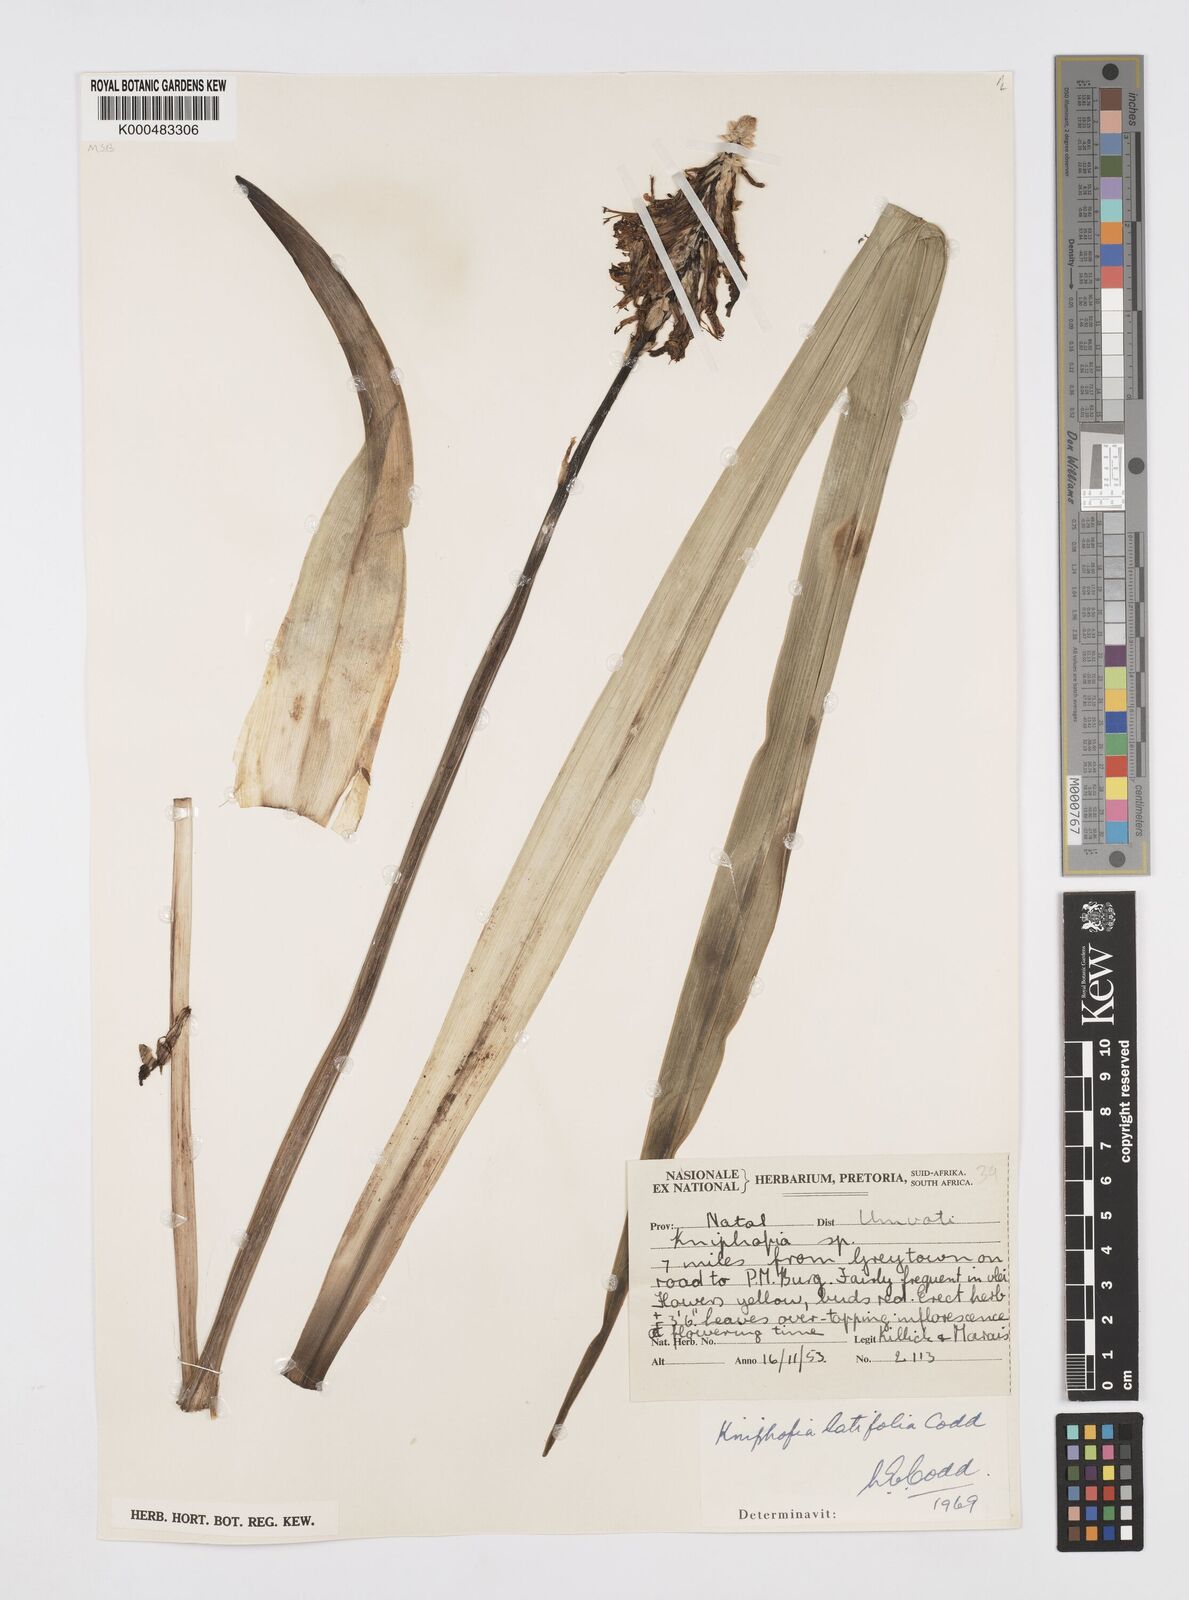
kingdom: Plantae
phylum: Tracheophyta
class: Liliopsida
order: Asparagales
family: Asphodelaceae
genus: Kniphofia
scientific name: Kniphofia latifolia
